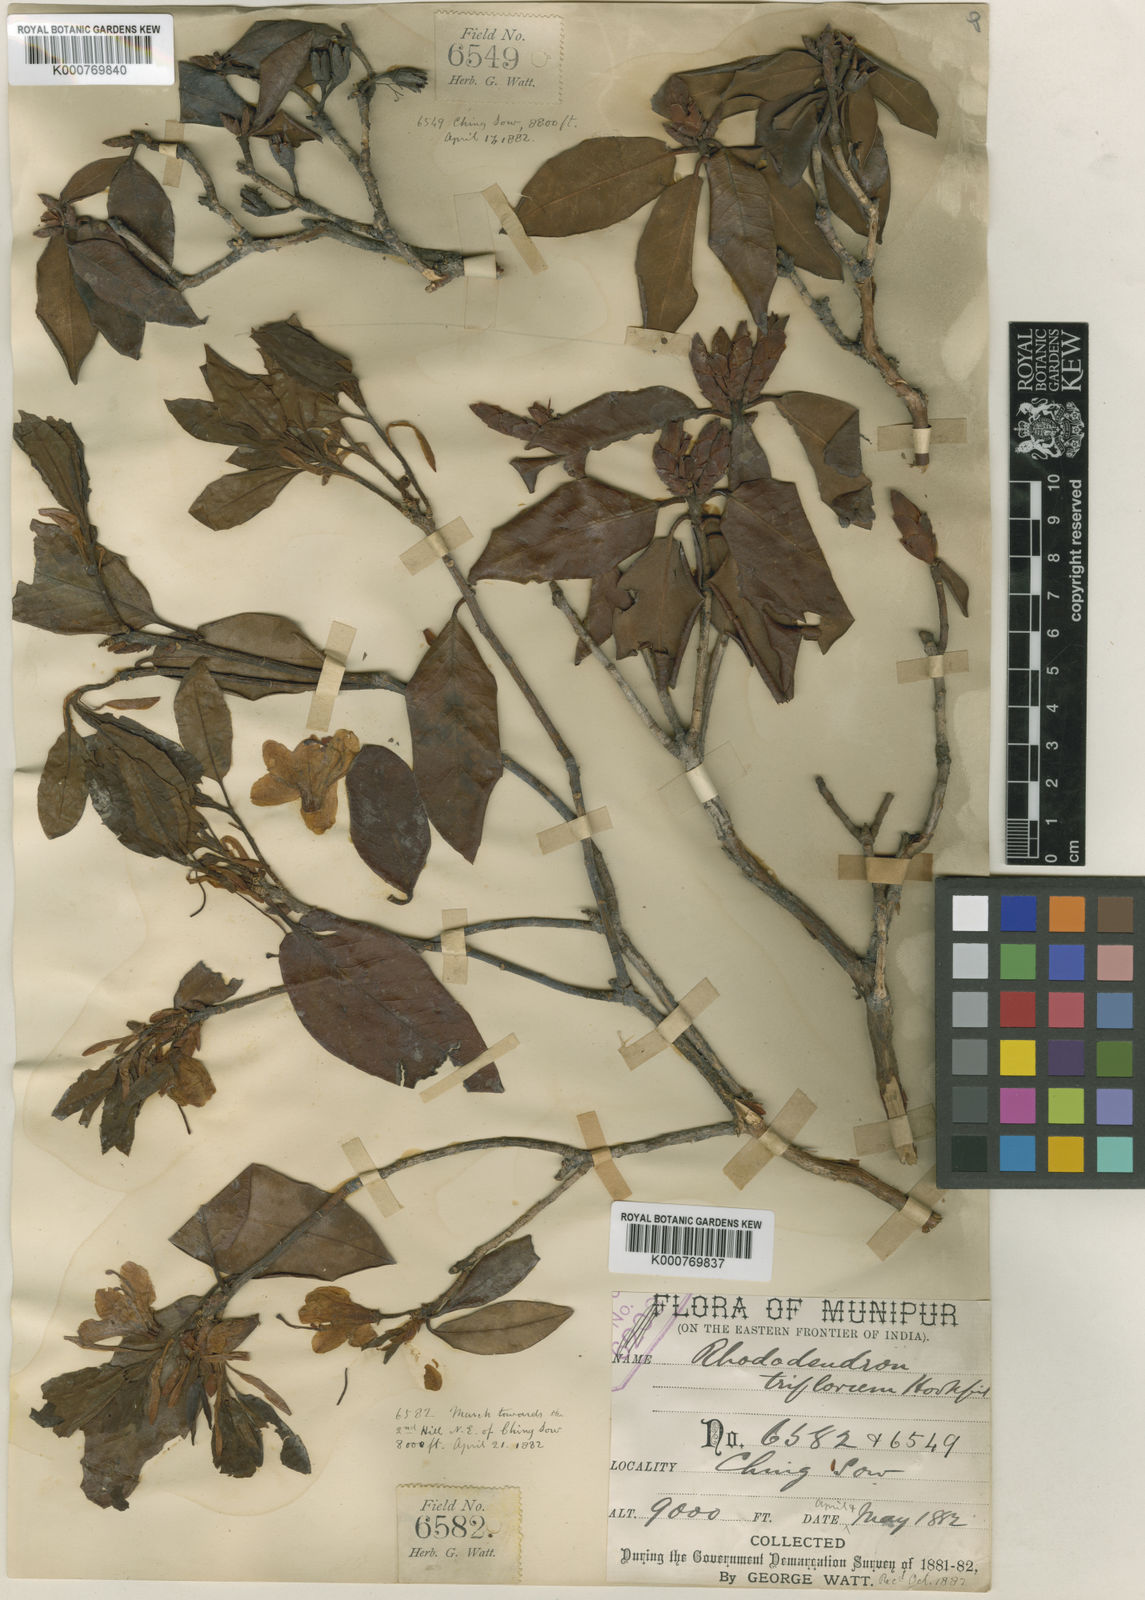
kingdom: Plantae
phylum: Tracheophyta
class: Magnoliopsida
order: Ericales
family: Ericaceae
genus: Rhododendron
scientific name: Rhododendron triflorum
